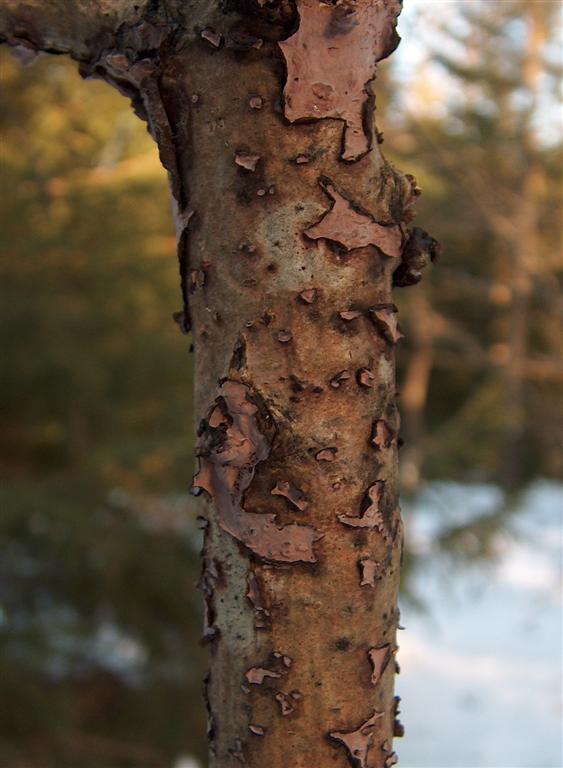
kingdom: Fungi
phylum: Basidiomycota
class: Agaricomycetes
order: Russulales
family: Peniophoraceae
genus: Peniophora
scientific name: Peniophora quercina
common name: ege-voksskind
